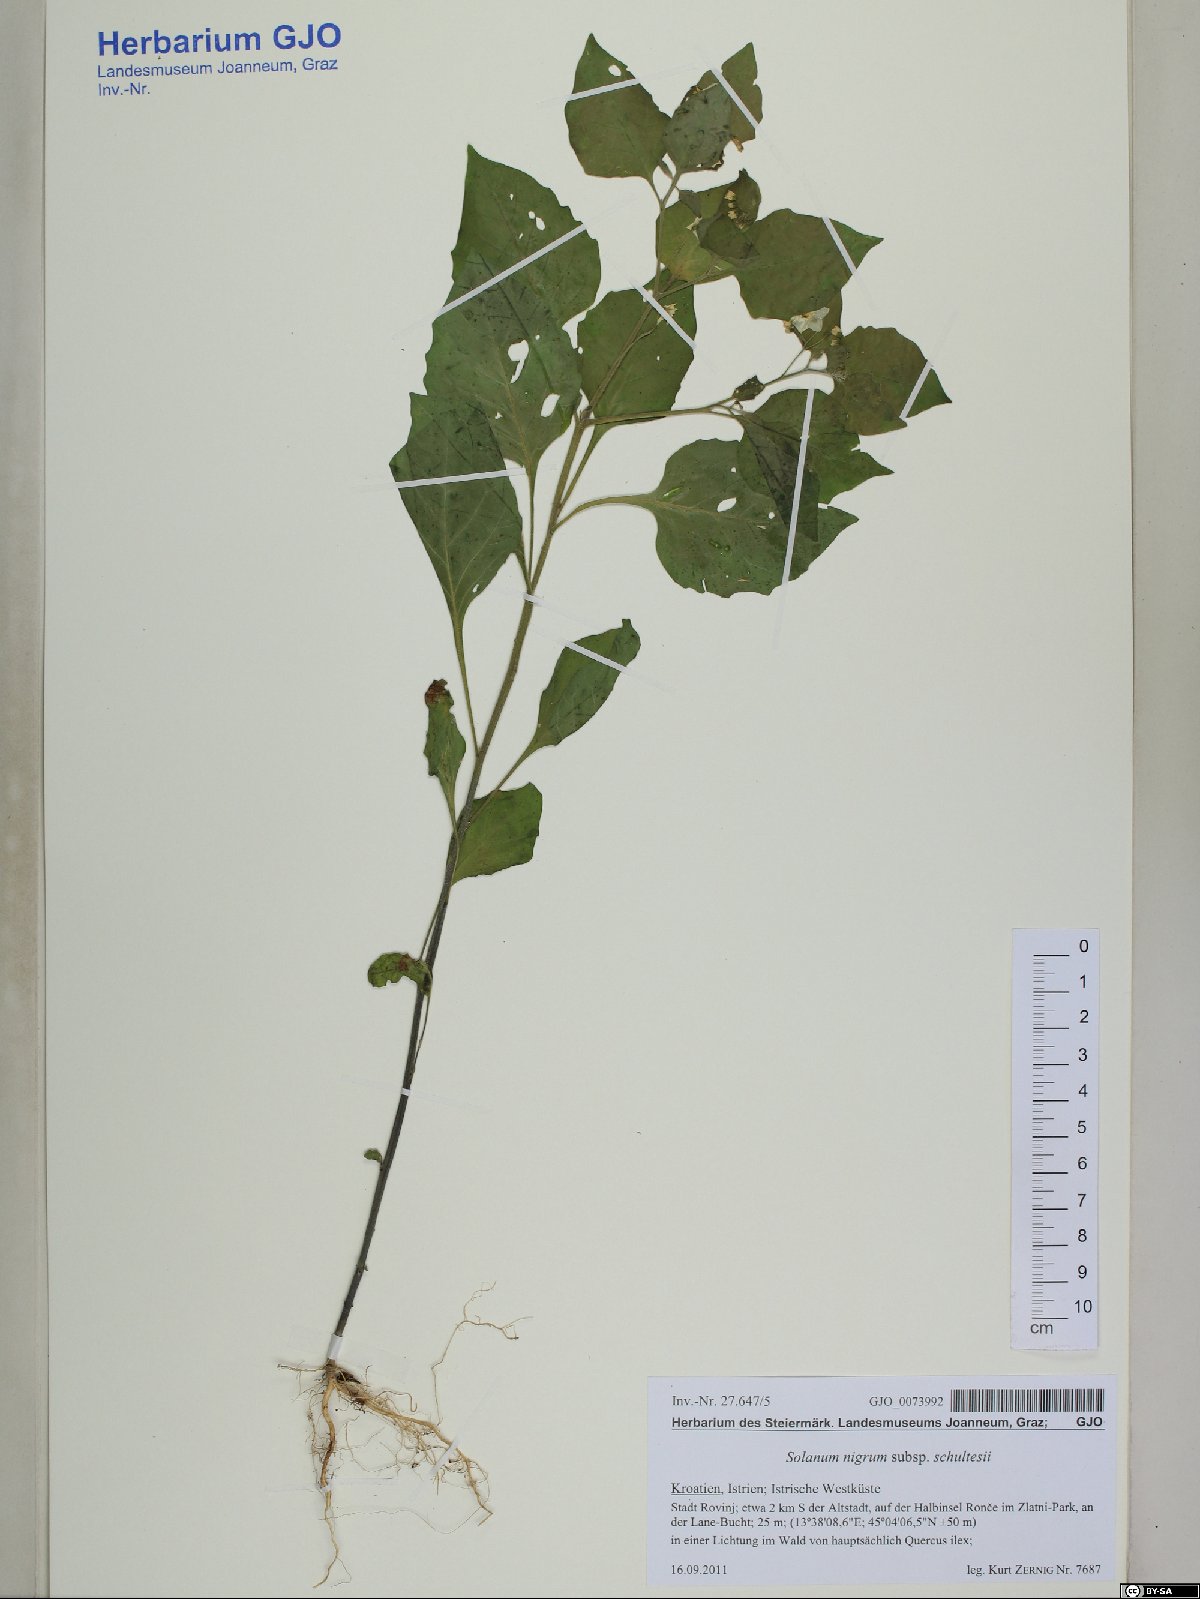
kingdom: Plantae
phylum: Tracheophyta
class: Magnoliopsida
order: Solanales
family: Solanaceae
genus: Solanum
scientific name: Solanum decipiens
